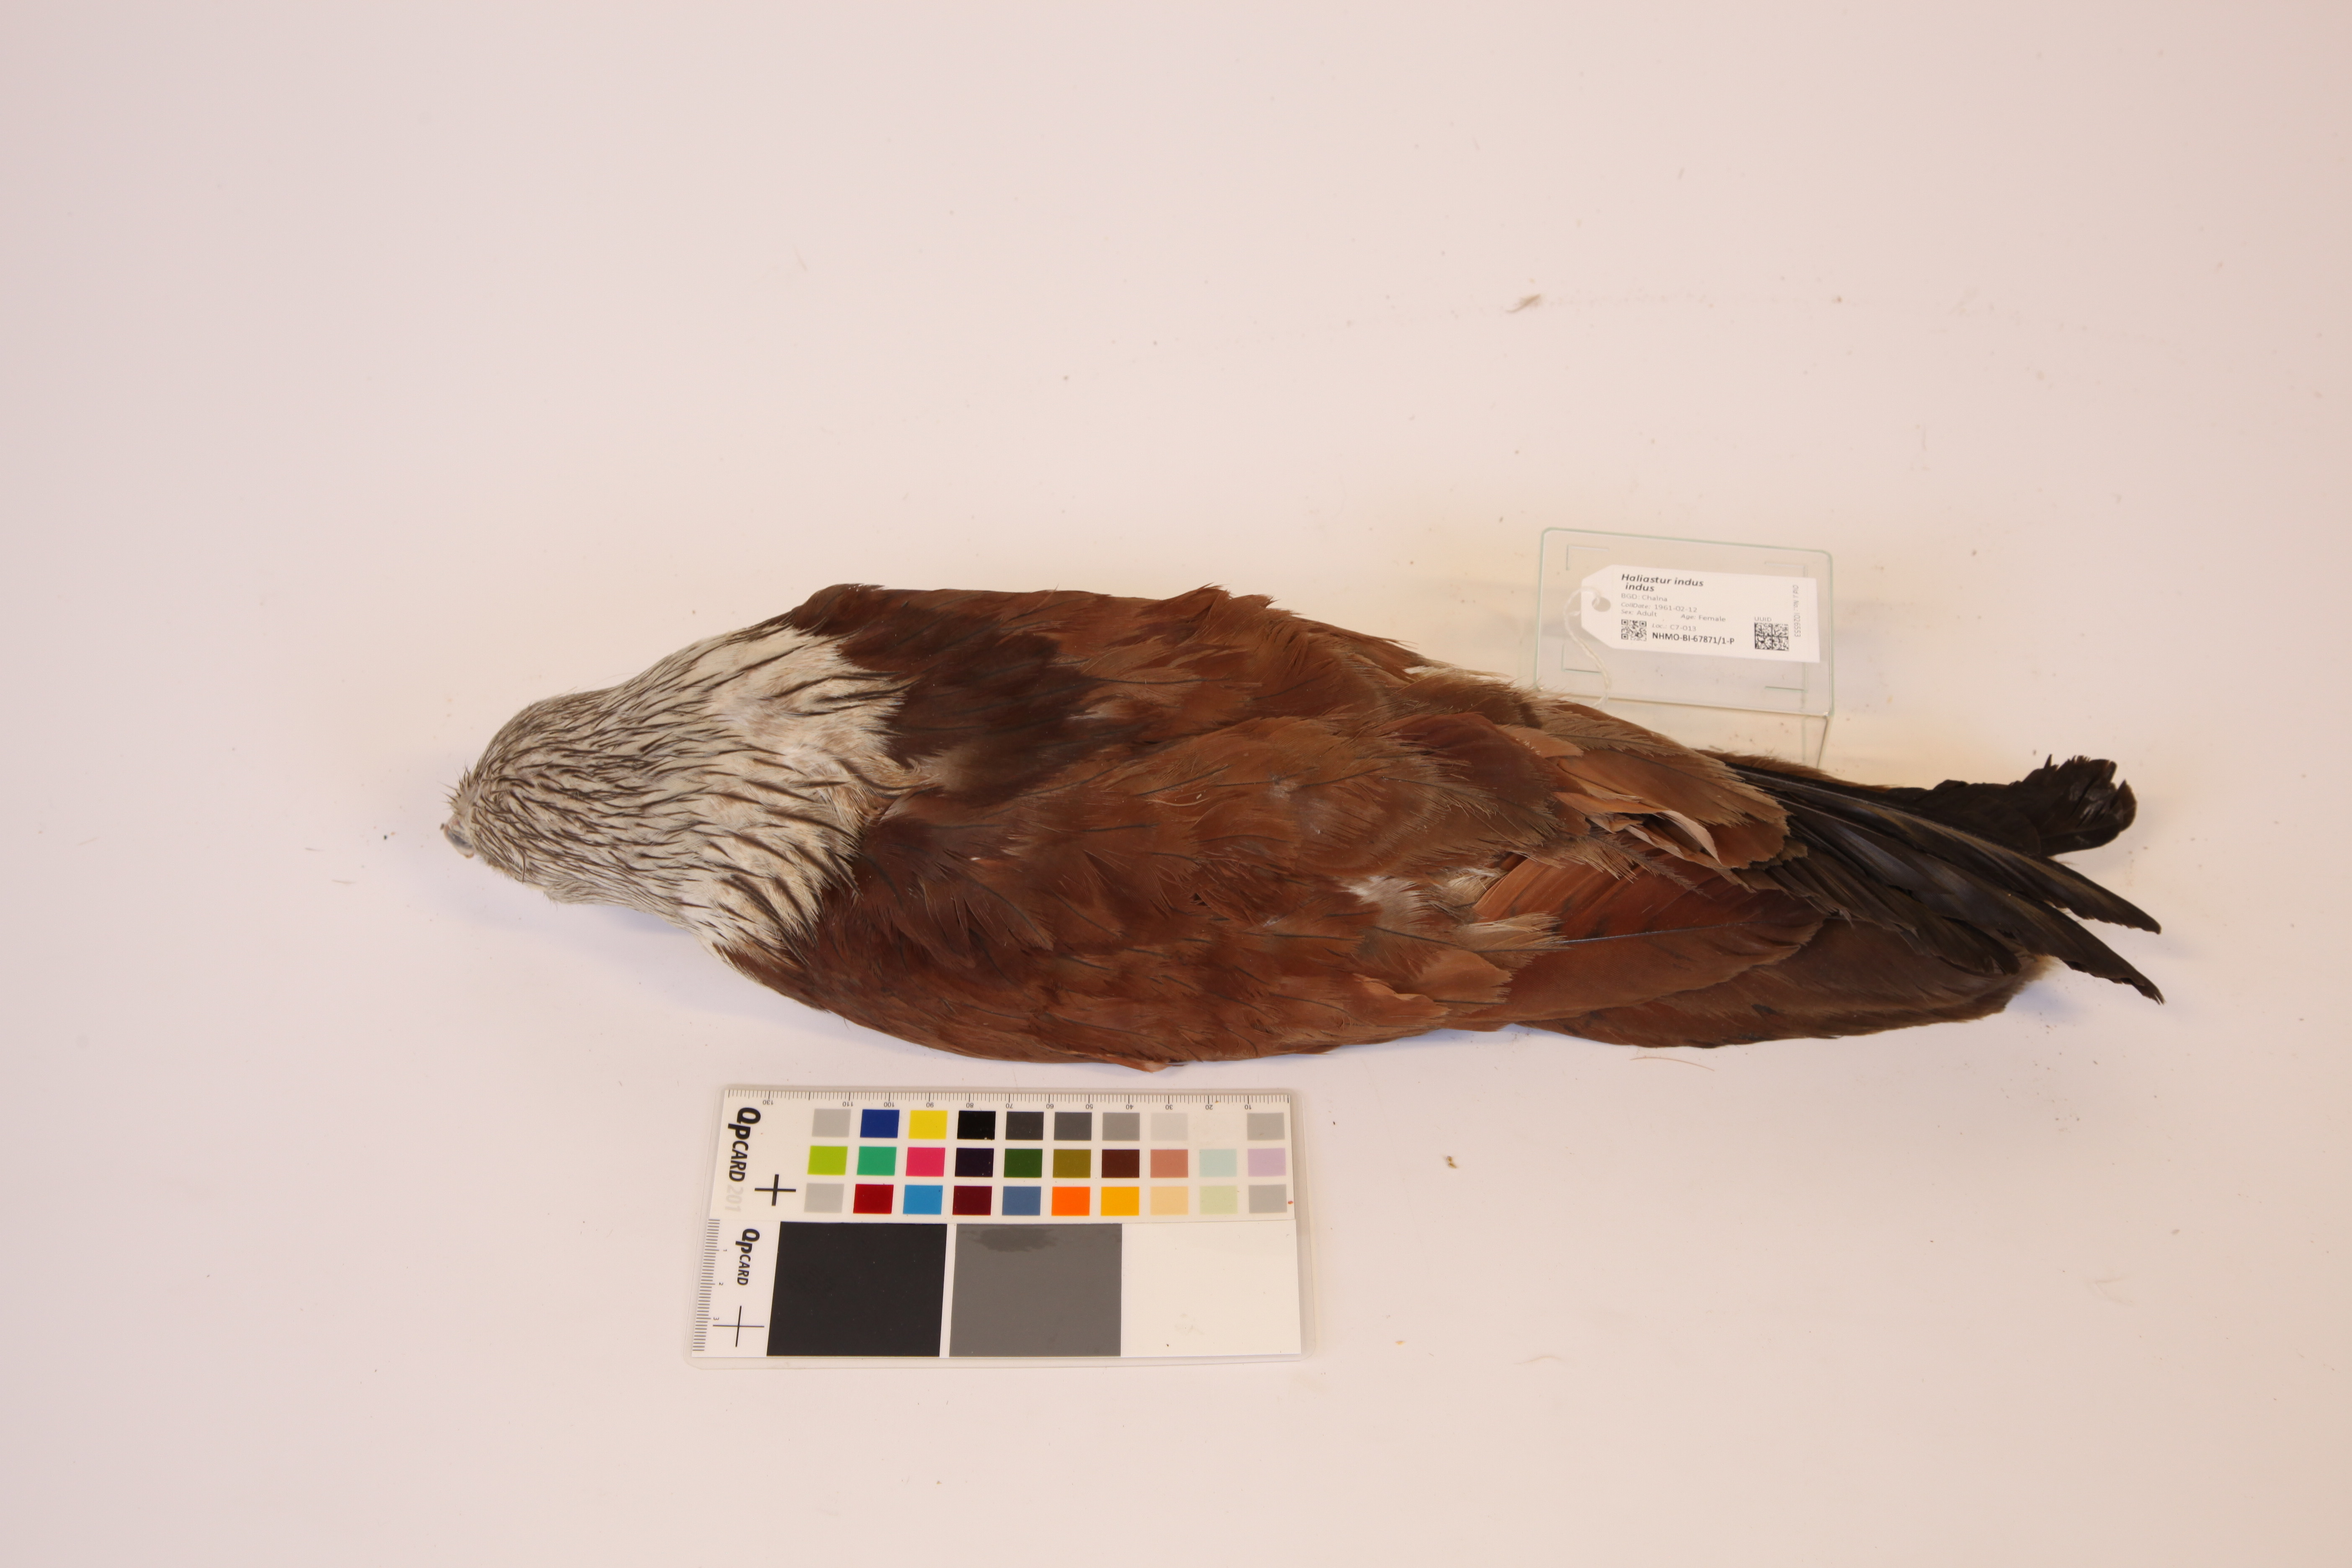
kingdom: Animalia
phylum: Chordata
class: Aves
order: Accipitriformes
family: Accipitridae
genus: Haliastur
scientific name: Haliastur indus
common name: Brahminy kite
